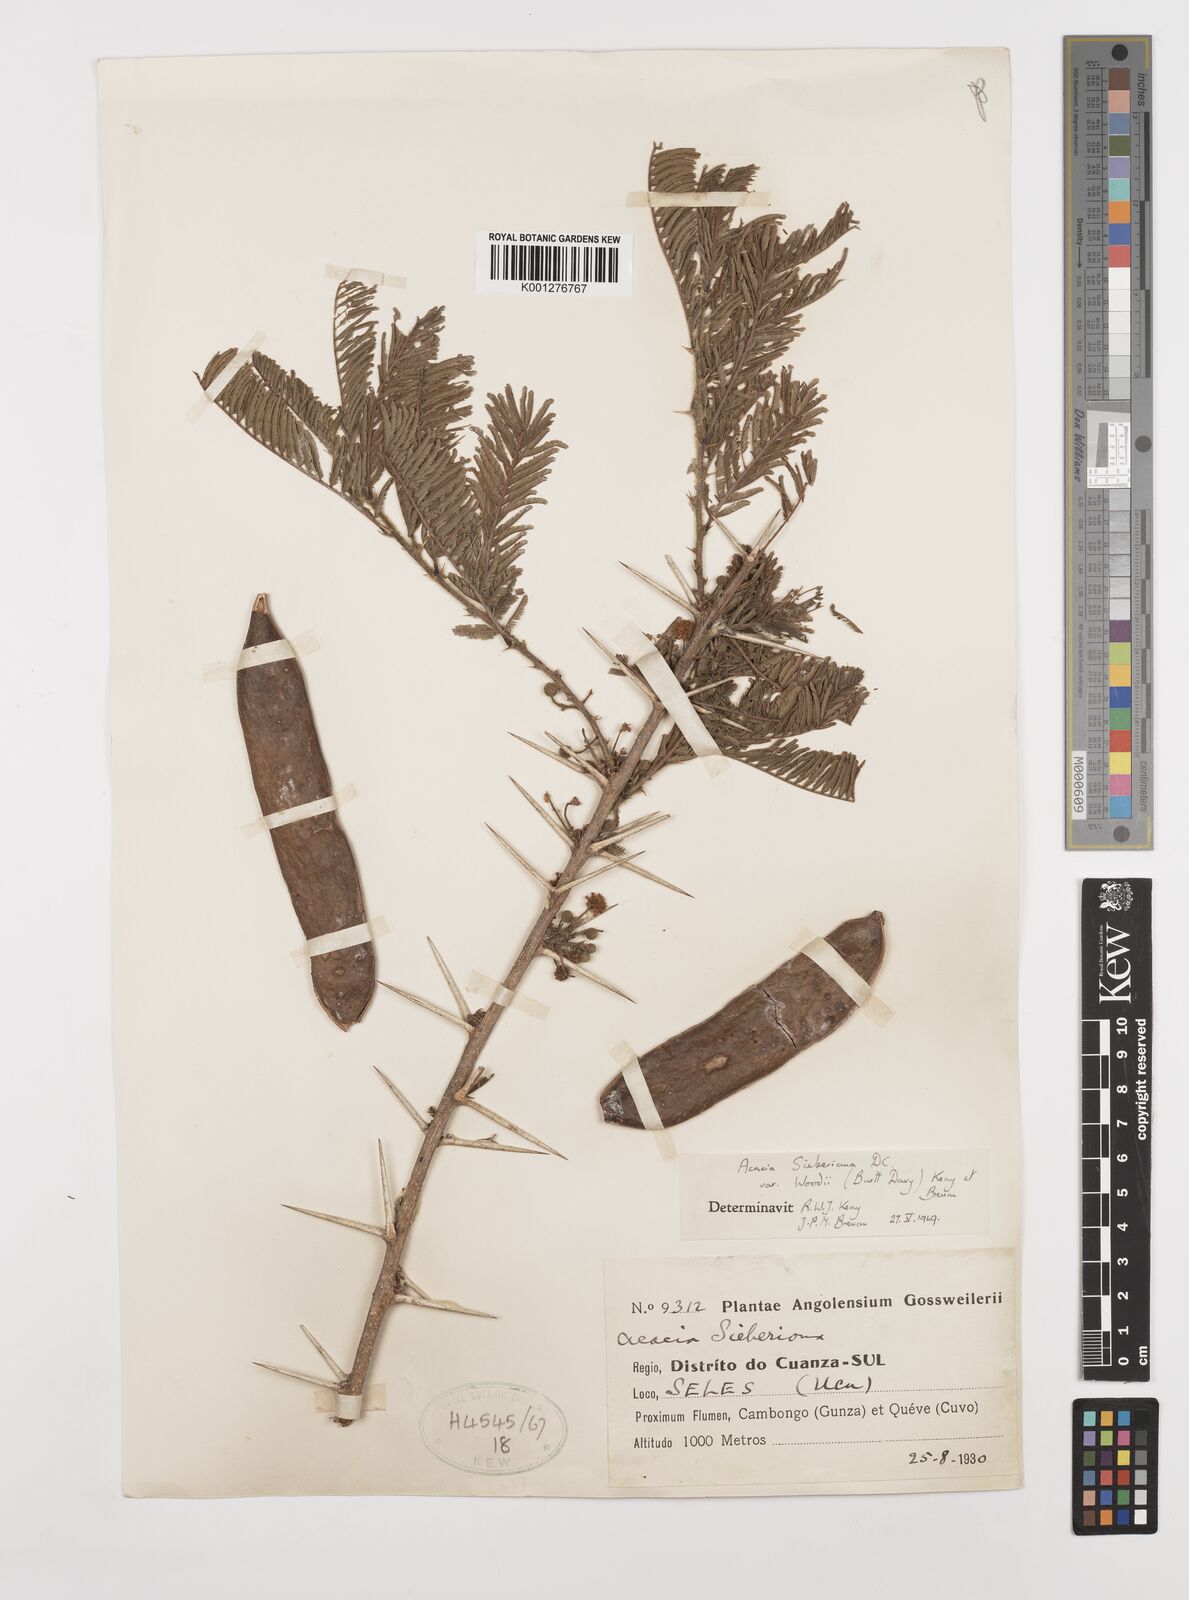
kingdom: Plantae
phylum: Tracheophyta
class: Magnoliopsida
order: Fabales
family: Fabaceae
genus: Acacia
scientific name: Acacia terminalis
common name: Cedar wattle
